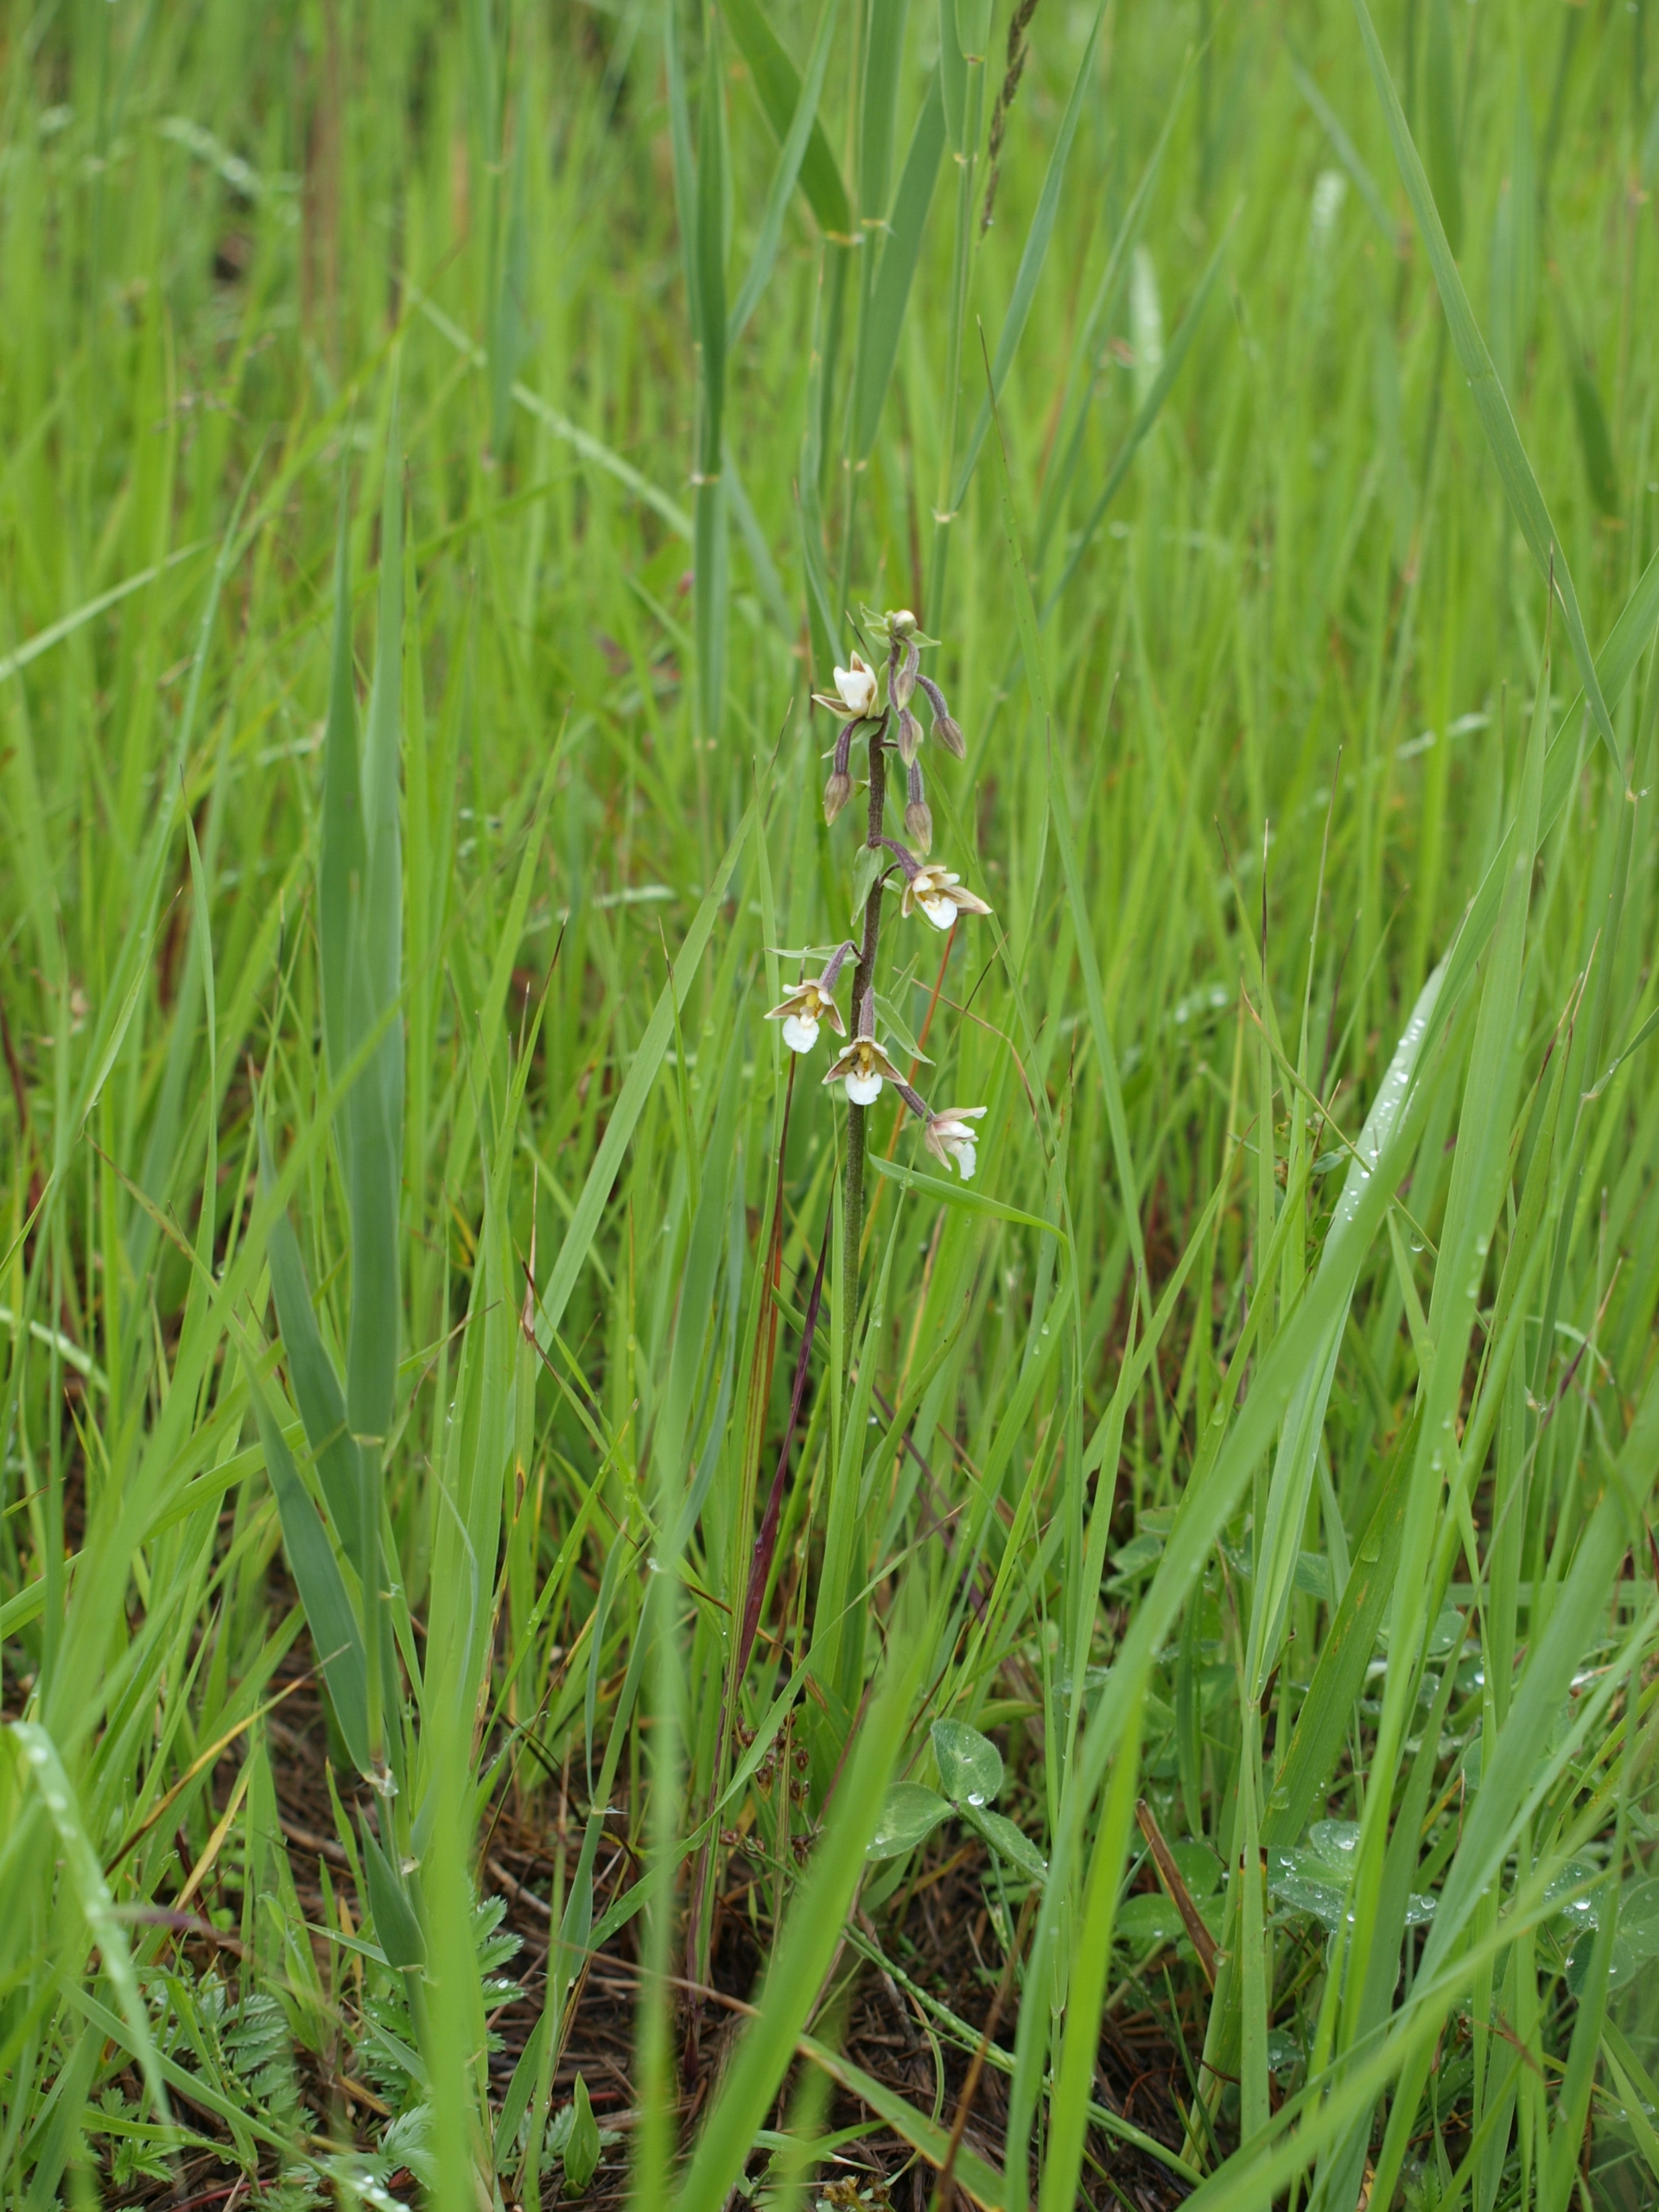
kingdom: Plantae
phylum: Tracheophyta
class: Liliopsida
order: Asparagales
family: Orchidaceae
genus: Epipactis
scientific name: Epipactis palustris
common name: Sump-hullæbe
